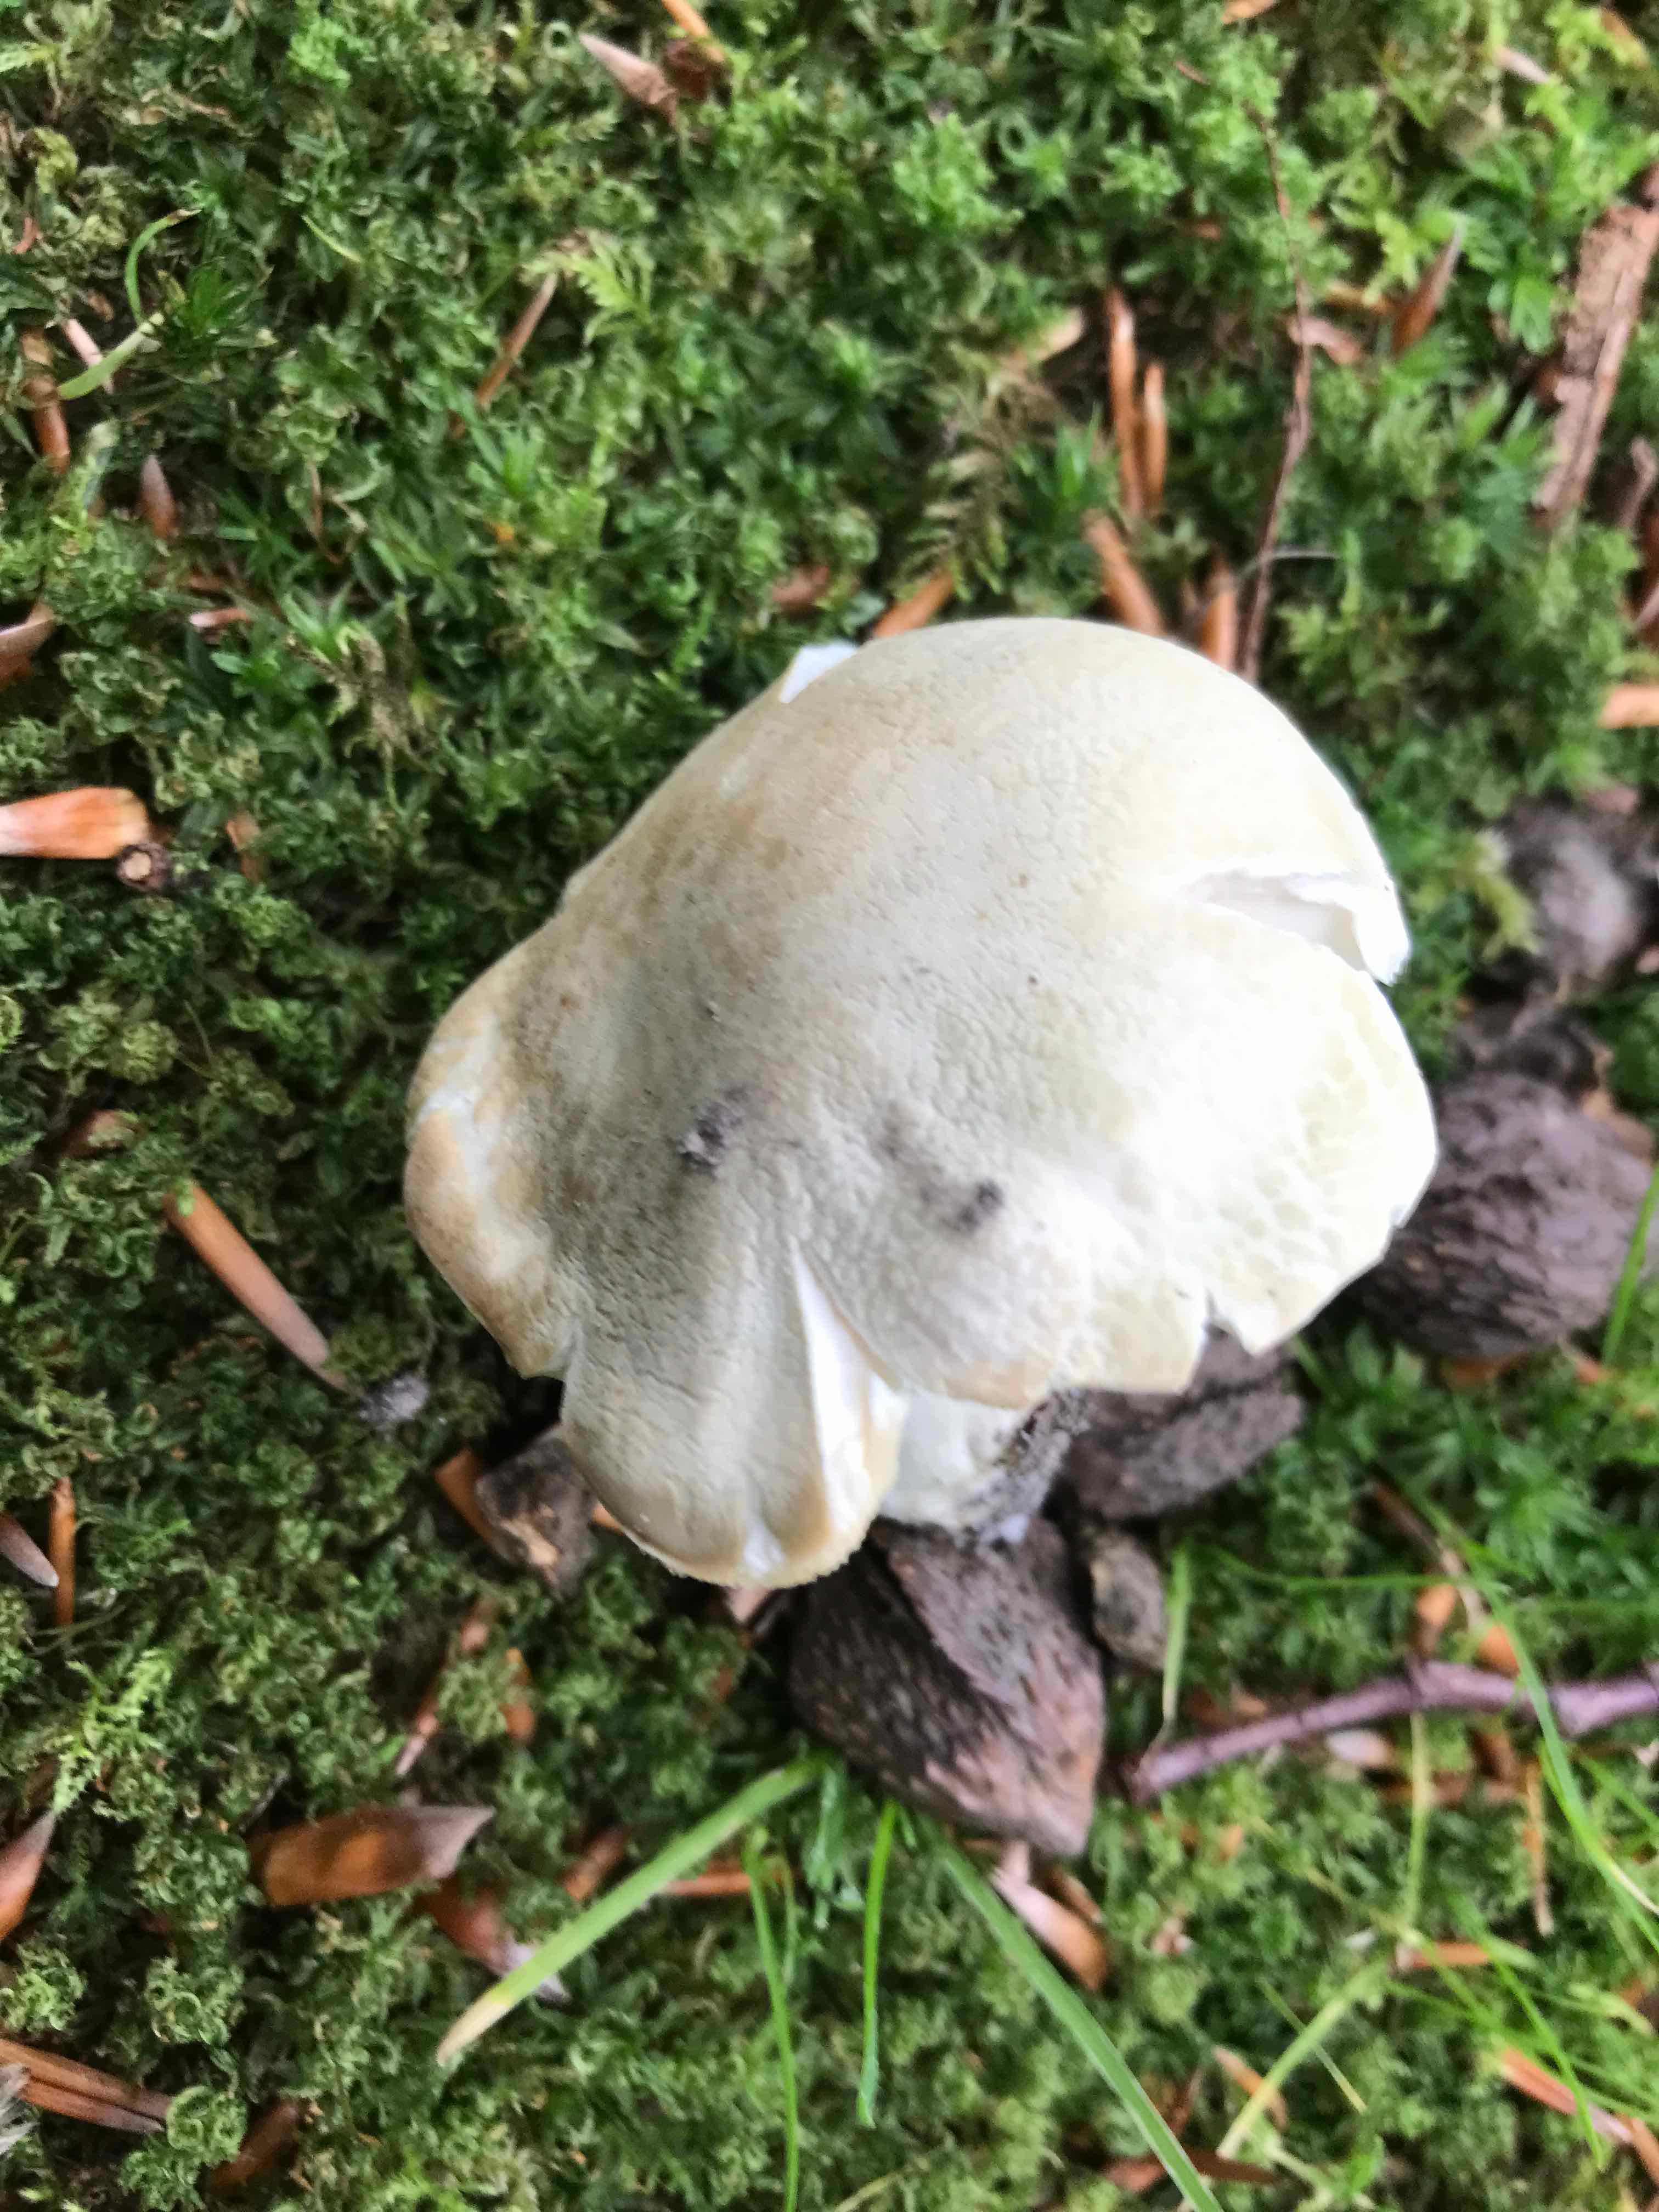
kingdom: Fungi
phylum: Basidiomycota
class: Agaricomycetes
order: Russulales
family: Russulaceae
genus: Russula
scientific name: Russula virescens
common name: spanskgrøn skørhat
